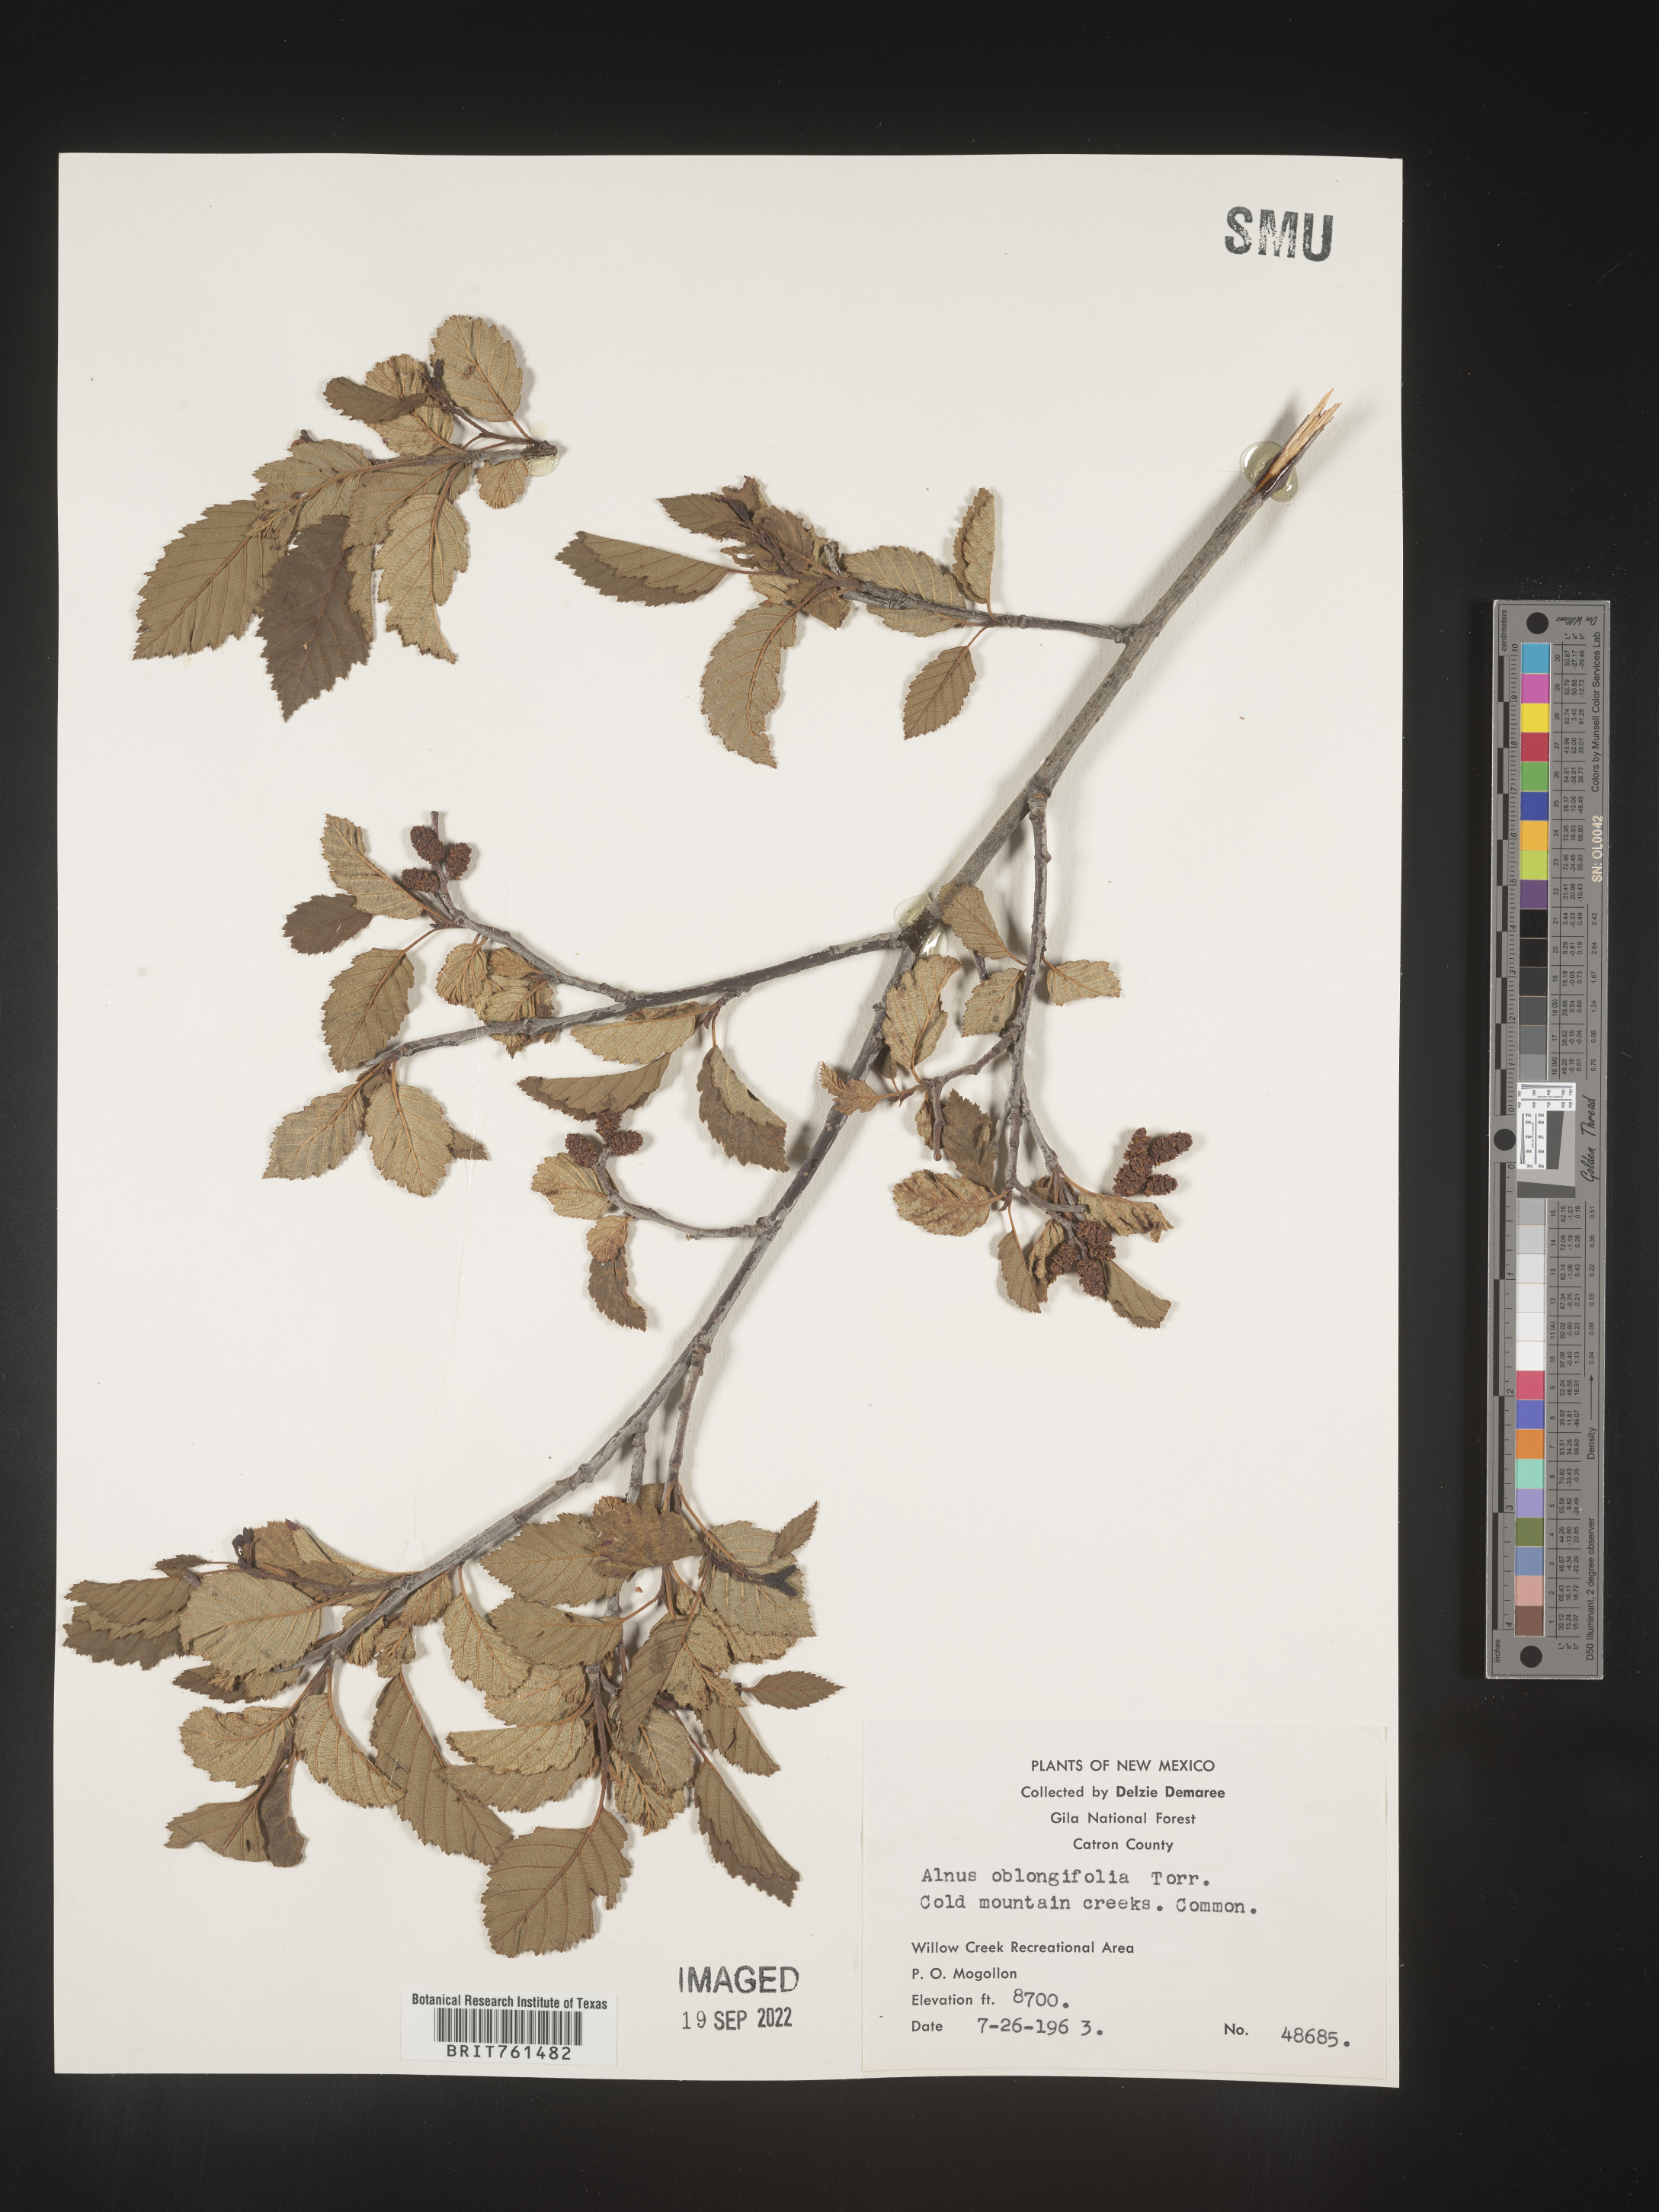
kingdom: Plantae
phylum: Tracheophyta
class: Magnoliopsida
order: Fagales
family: Betulaceae
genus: Alnus
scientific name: Alnus
